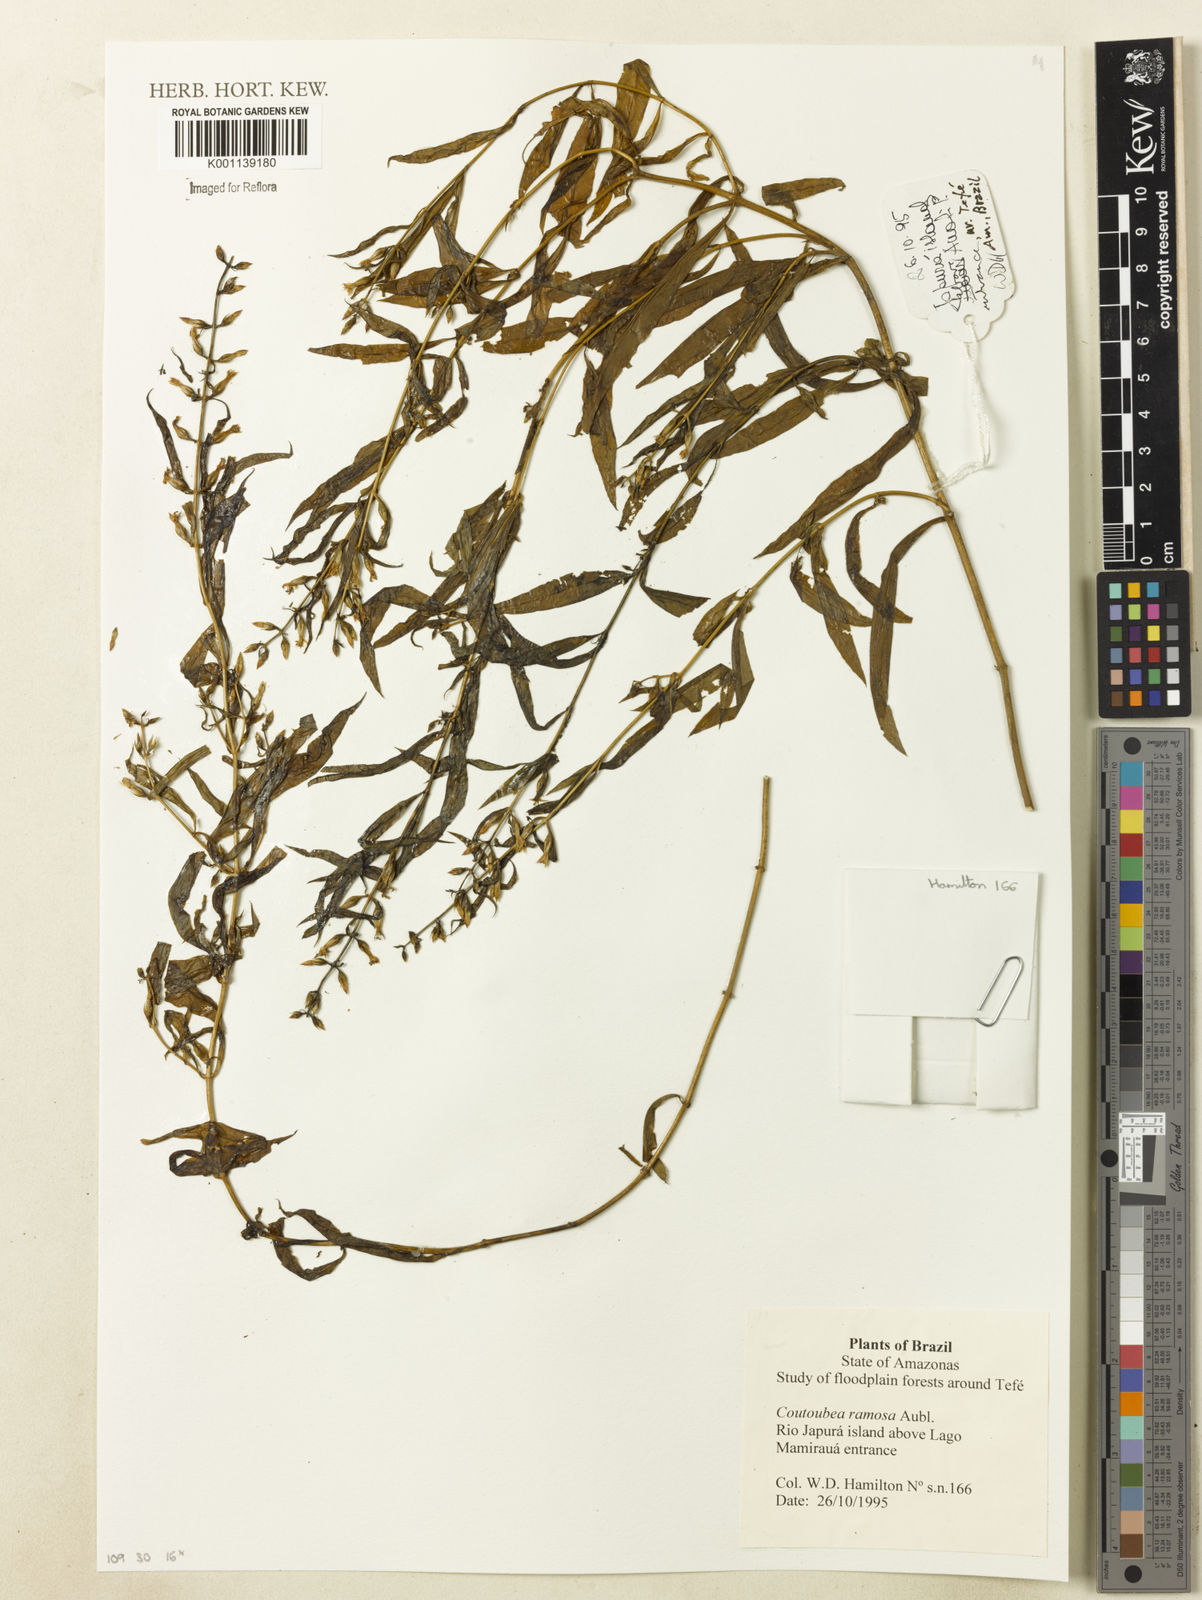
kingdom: Plantae
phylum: Tracheophyta
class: Magnoliopsida
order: Gentianales
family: Gentianaceae
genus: Coutoubea
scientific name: Coutoubea ramosa
